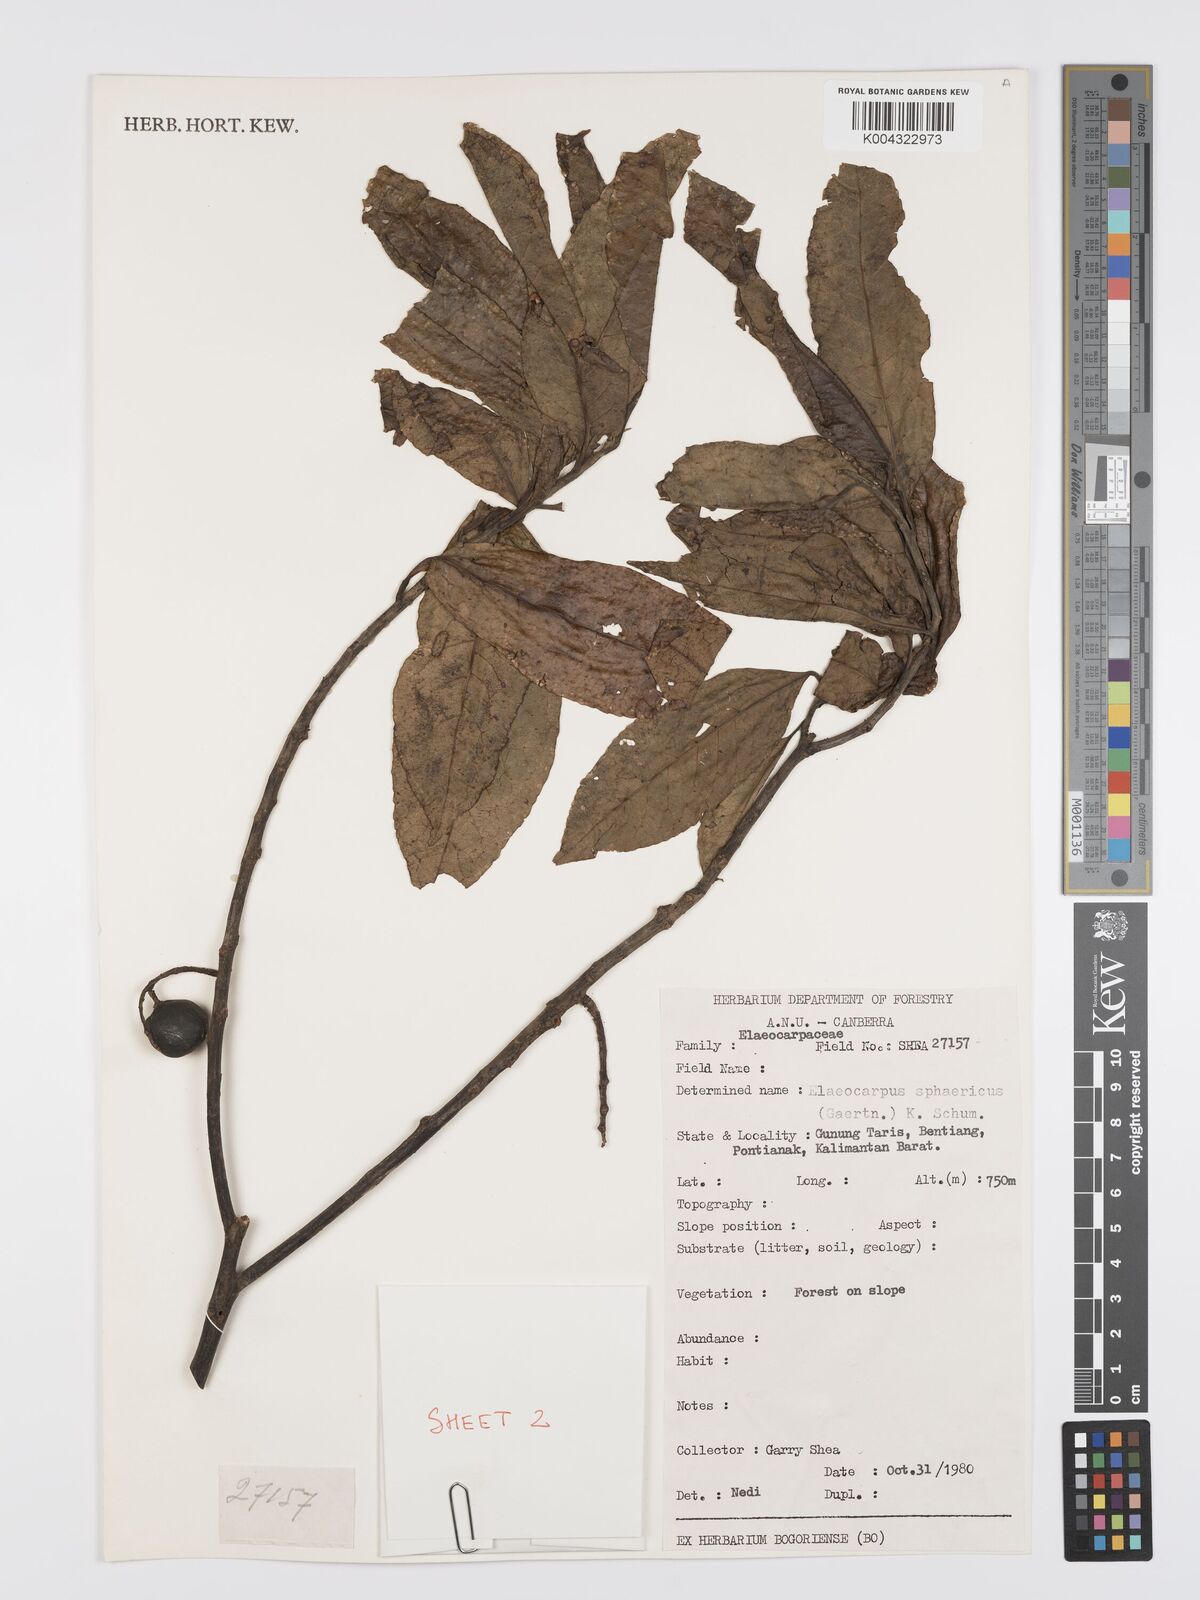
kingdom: Plantae
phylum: Tracheophyta
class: Magnoliopsida
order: Oxalidales
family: Elaeocarpaceae
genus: Elaeocarpus
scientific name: Elaeocarpus
